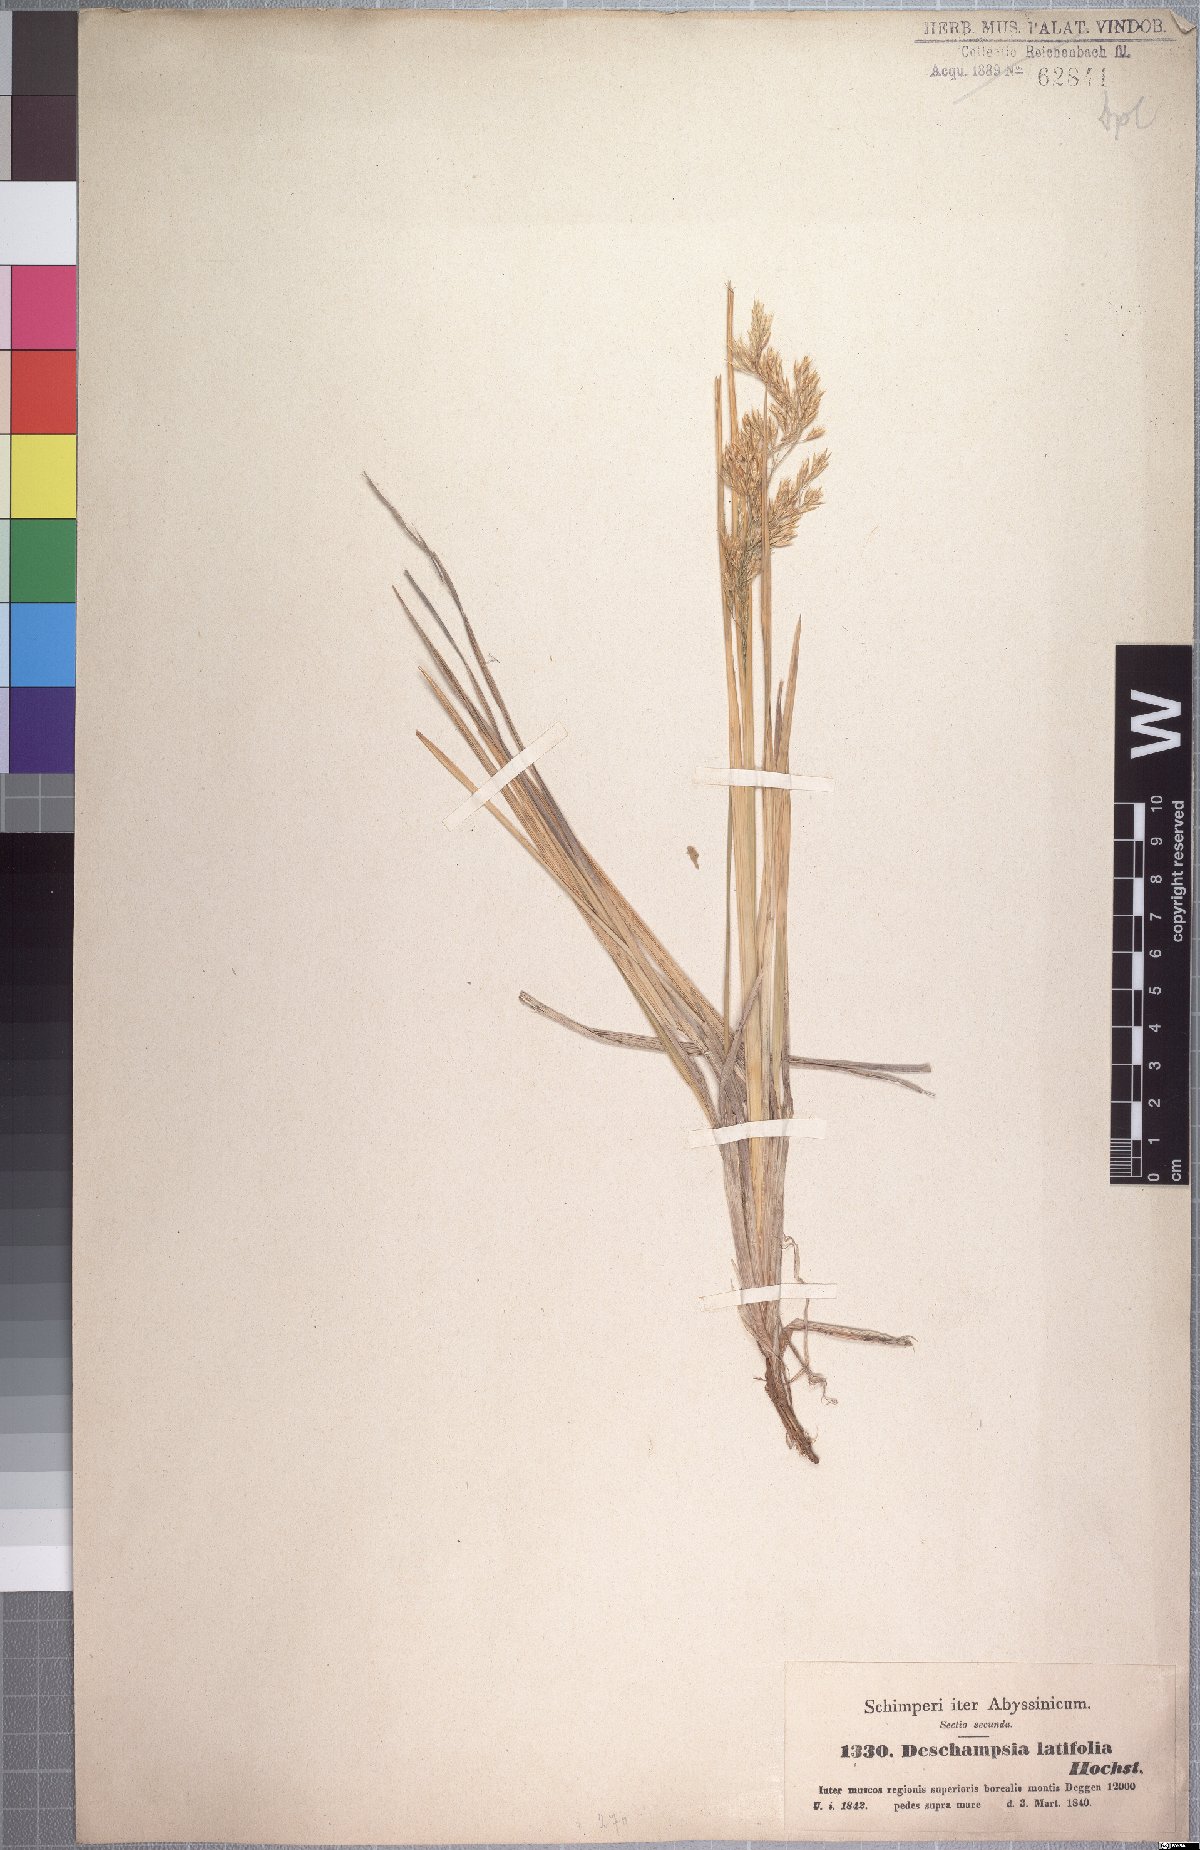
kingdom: Plantae
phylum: Tracheophyta
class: Liliopsida
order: Poales
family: Poaceae
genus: Deschampsia
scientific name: Deschampsia cespitosa
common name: Tufted hair-grass
